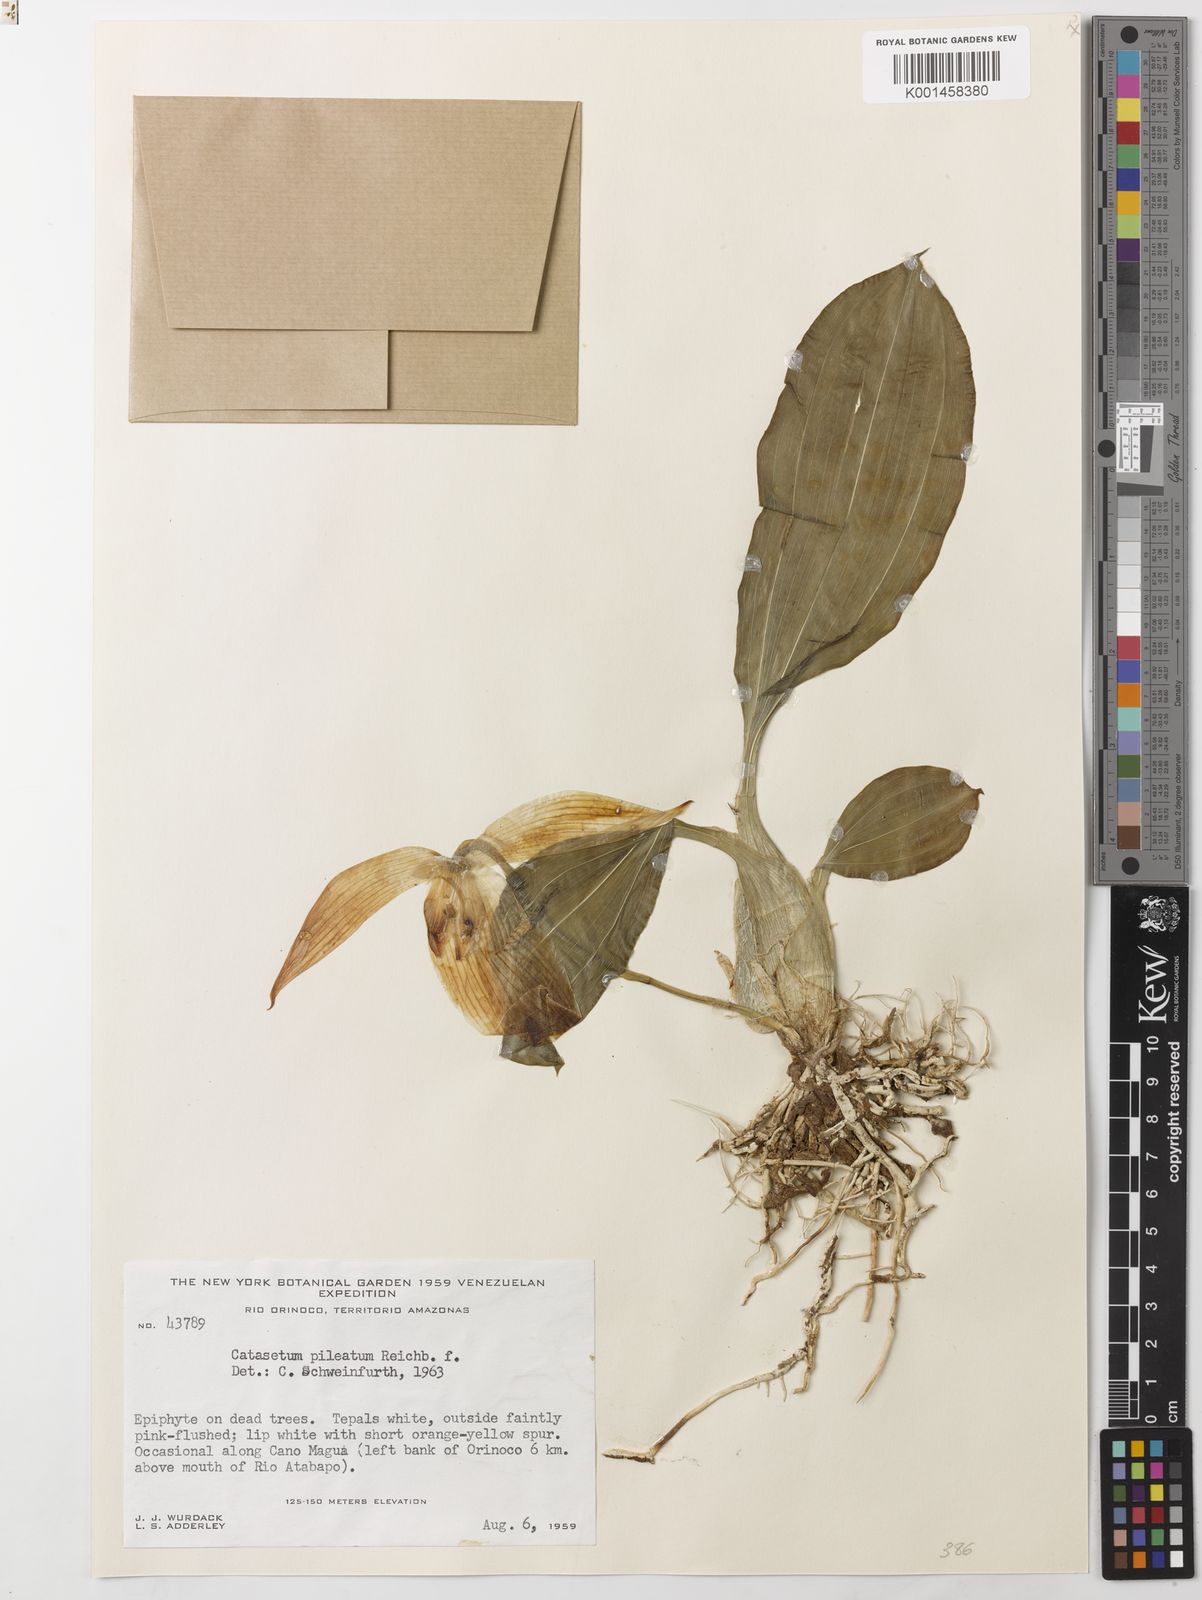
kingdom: Plantae
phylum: Tracheophyta
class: Liliopsida
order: Asparagales
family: Orchidaceae
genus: Catasetum
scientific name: Catasetum pileatum
